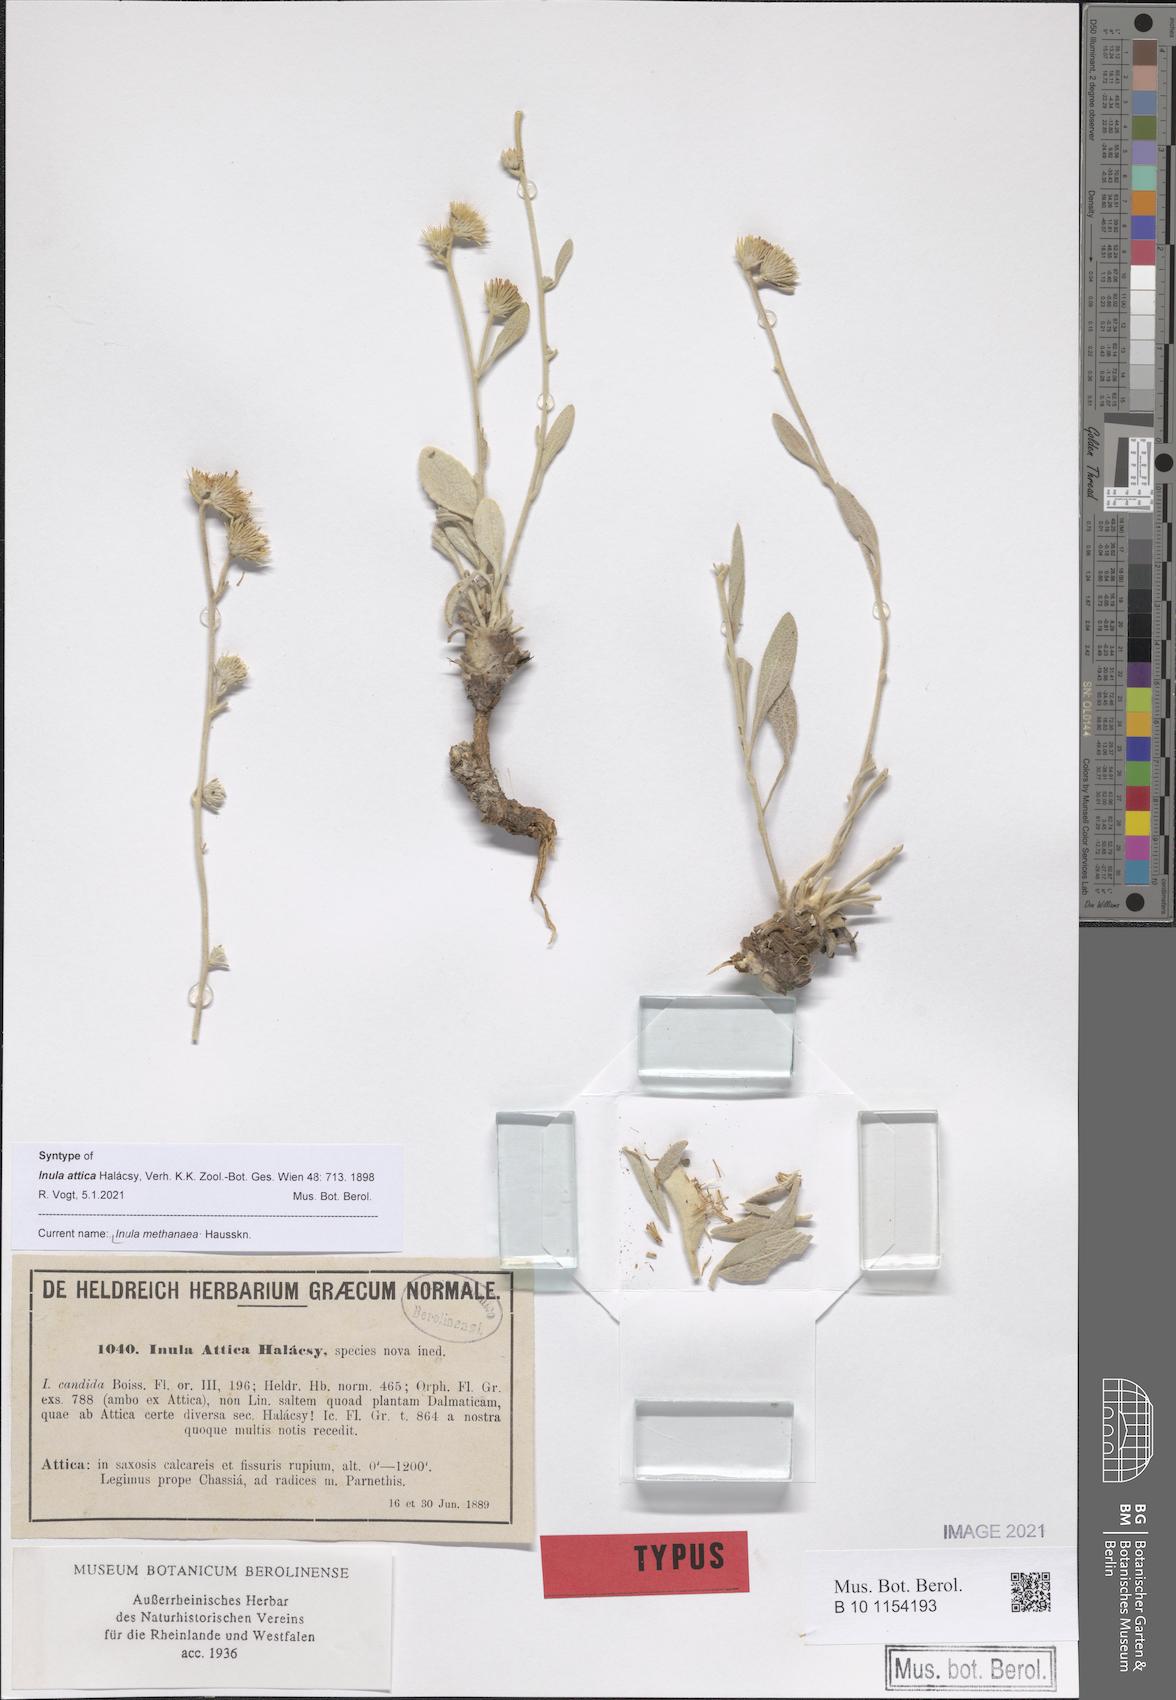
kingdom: Plantae
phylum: Tracheophyta
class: Magnoliopsida
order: Asterales
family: Asteraceae
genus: Pentanema
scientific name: Pentanema verbascifolium
